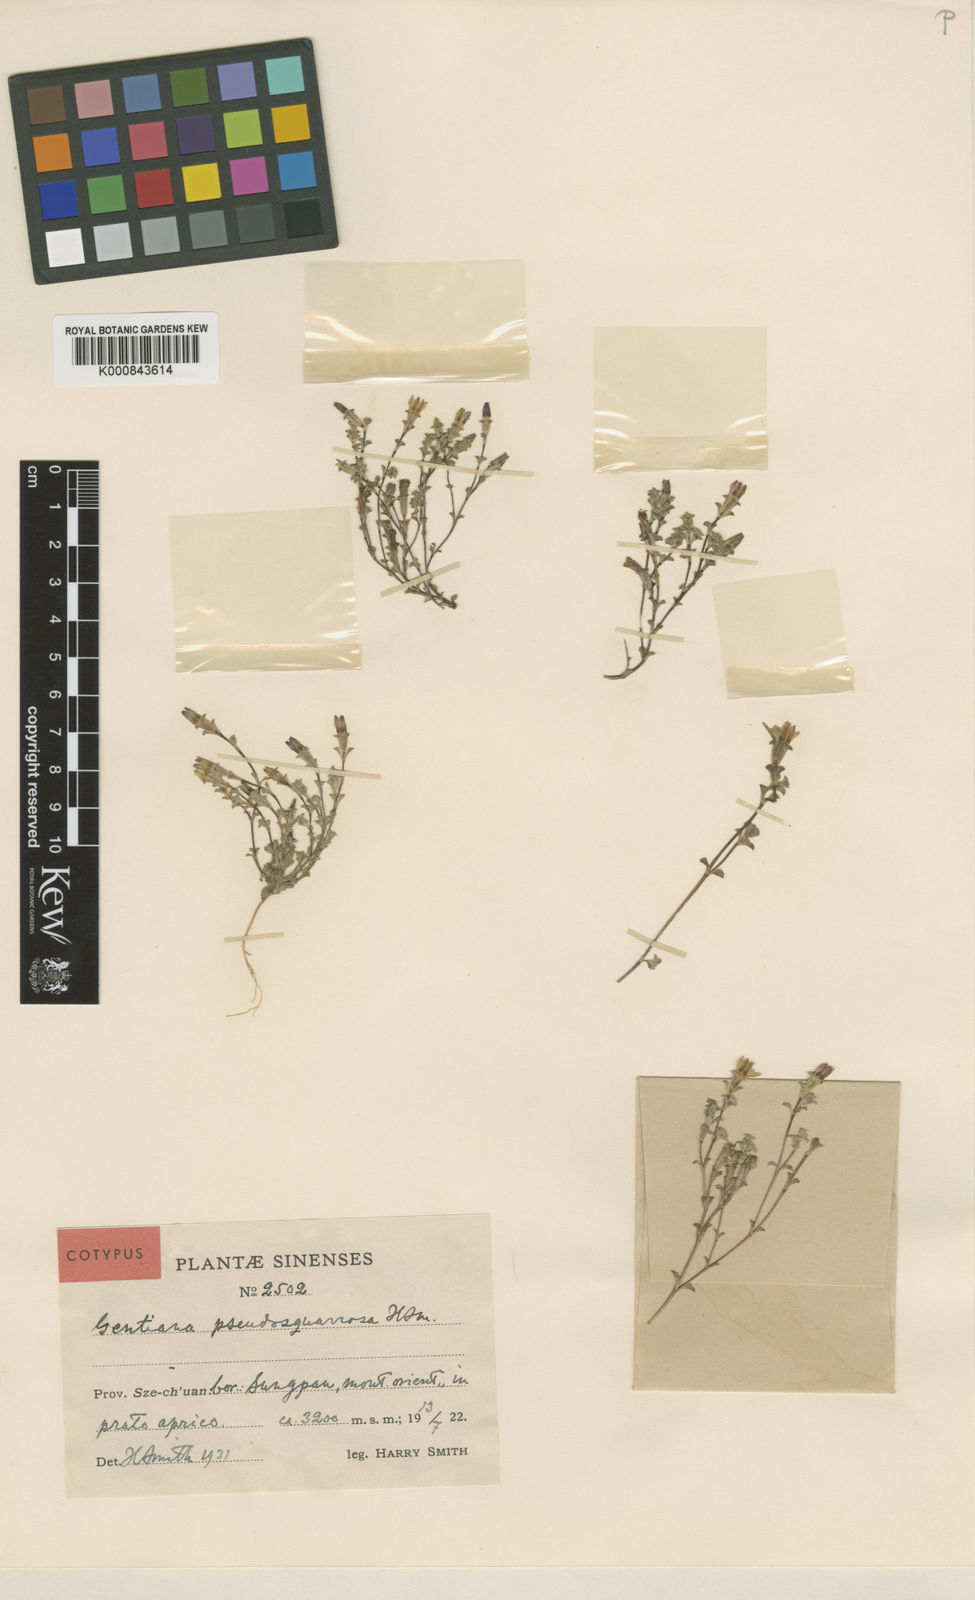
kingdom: Plantae
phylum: Tracheophyta
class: Magnoliopsida
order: Gentianales
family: Gentianaceae
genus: Gentiana
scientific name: Gentiana pseudosquarrosa
